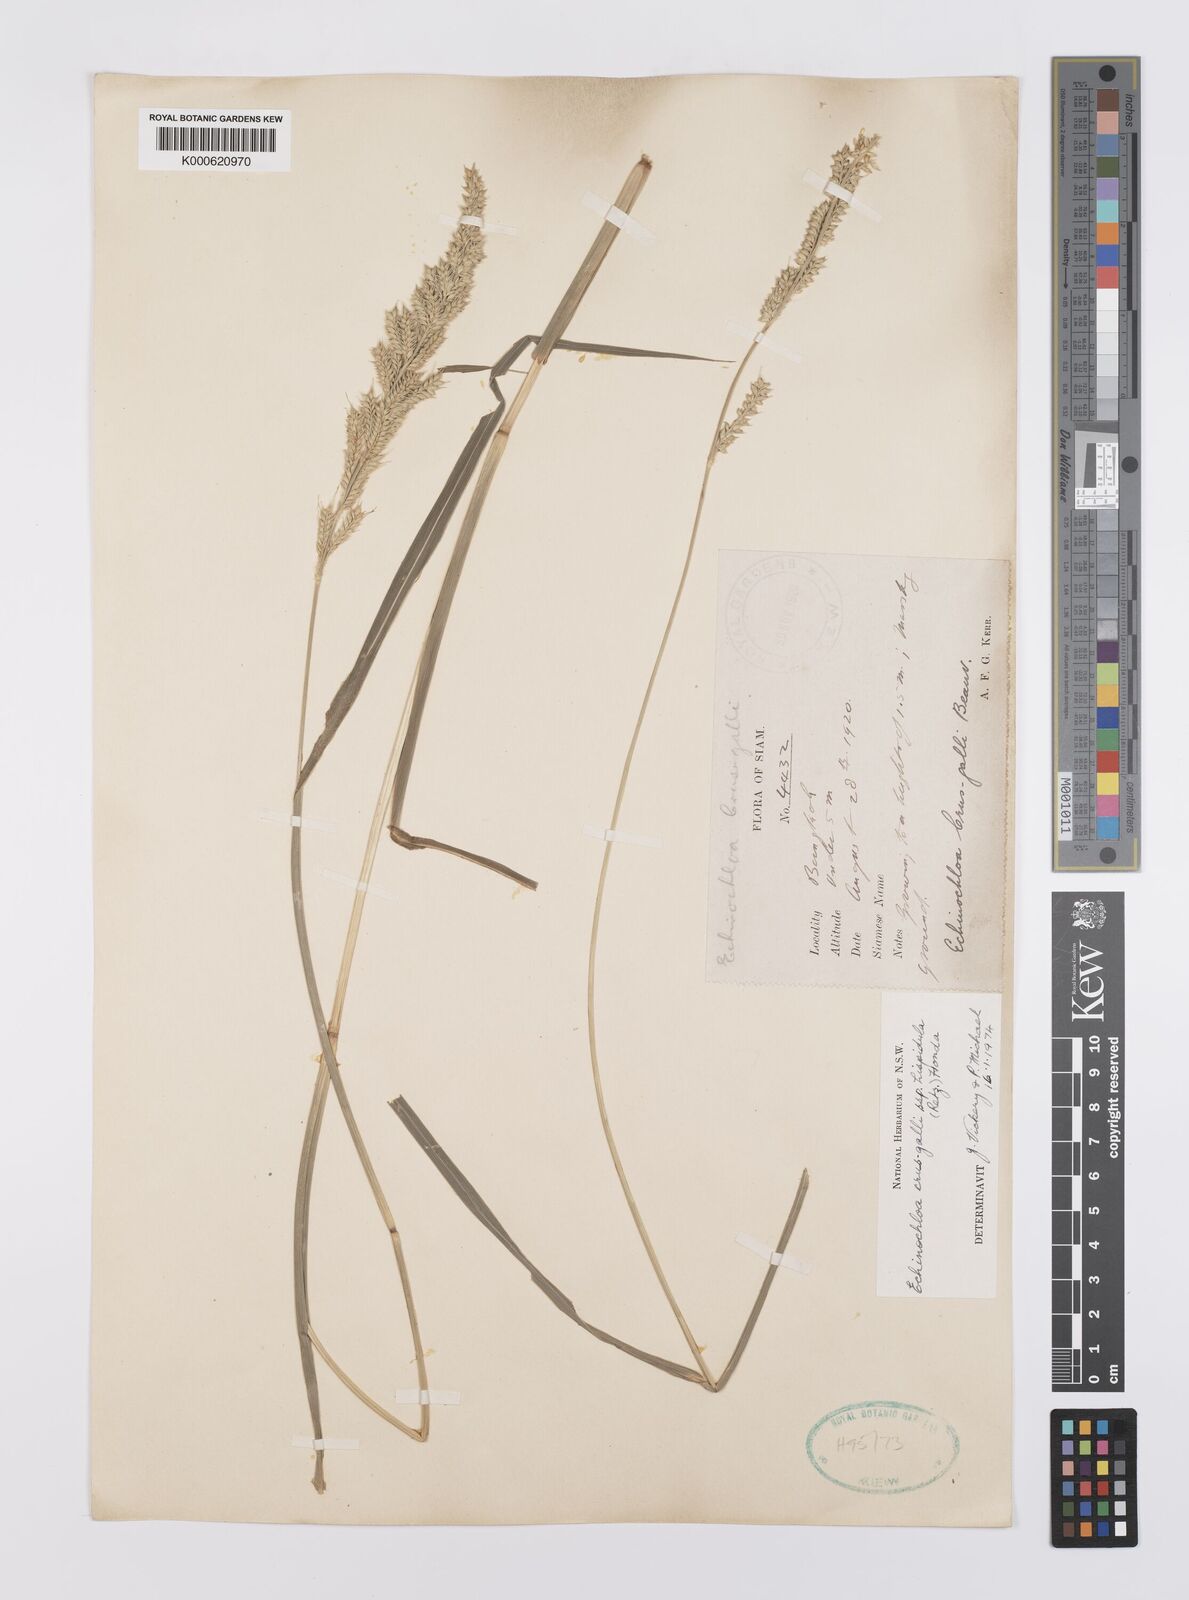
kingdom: Plantae
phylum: Tracheophyta
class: Liliopsida
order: Poales
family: Poaceae
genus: Echinochloa
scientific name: Echinochloa crus-galli
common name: Cockspur
